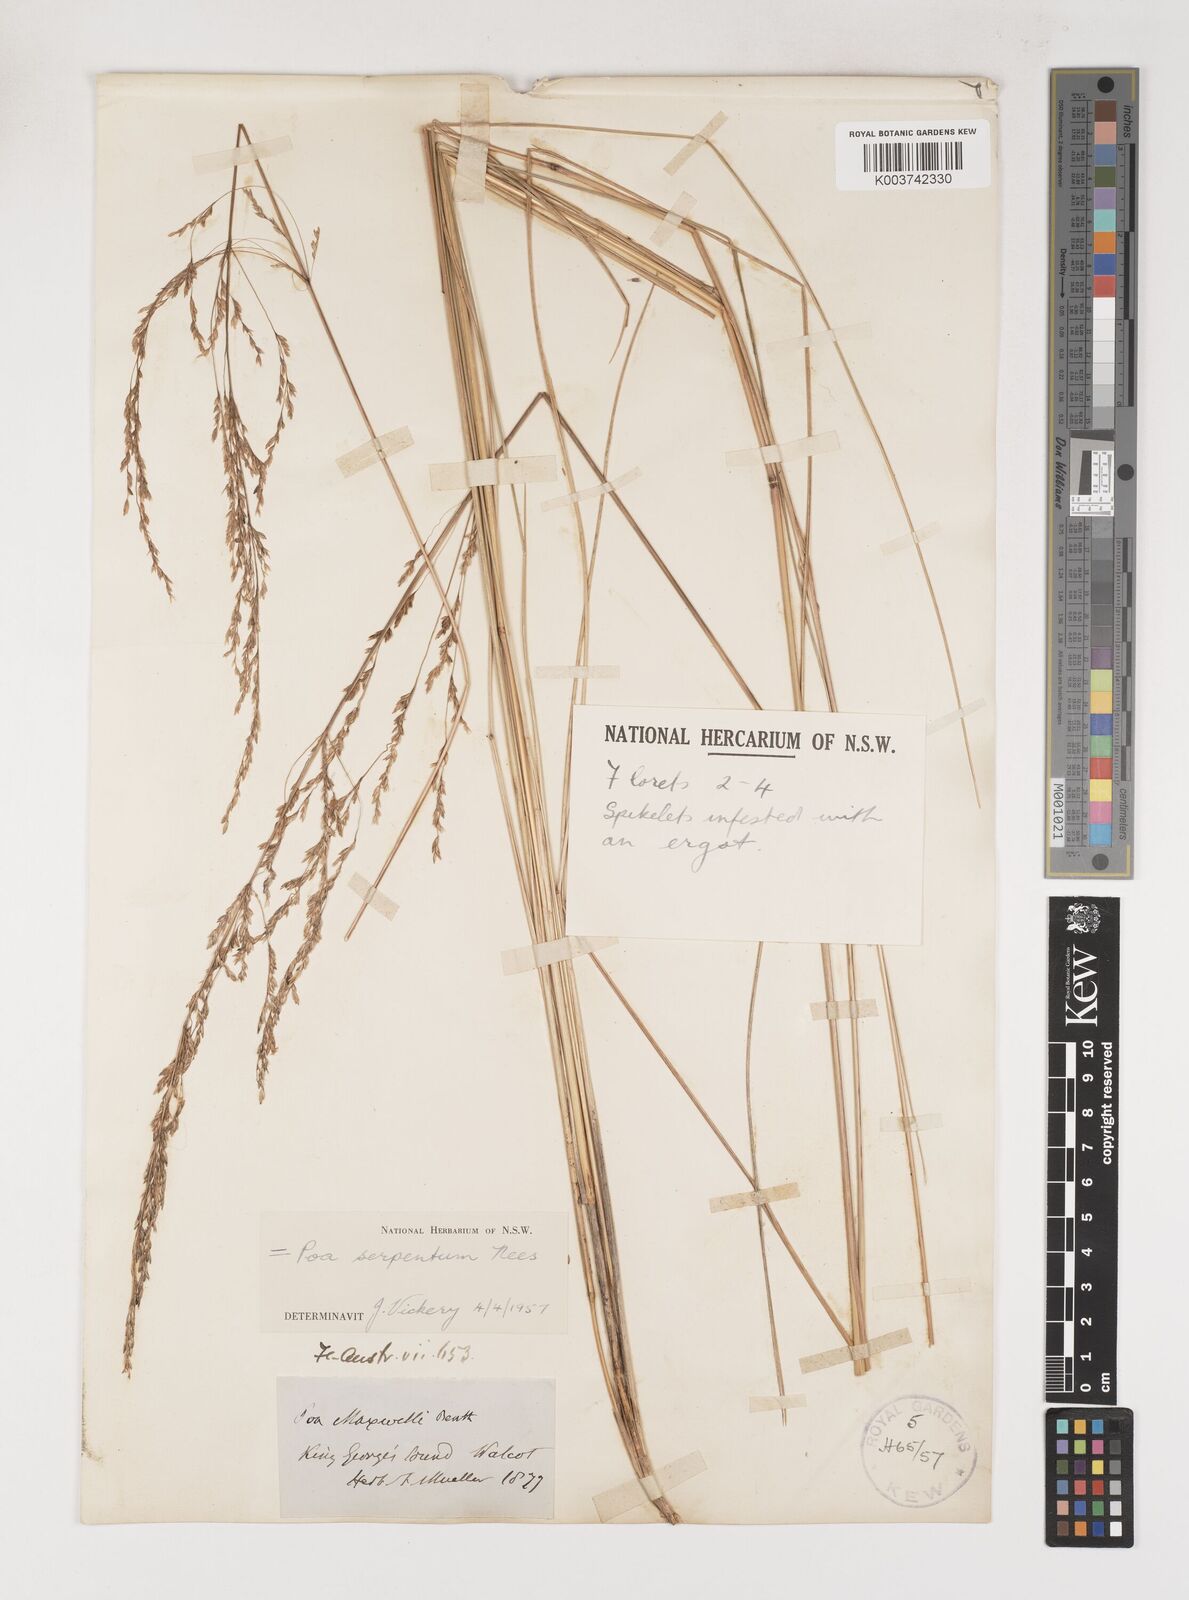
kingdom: Plantae
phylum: Tracheophyta
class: Liliopsida
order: Poales
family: Poaceae
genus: Poa
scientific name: Poa porphyroclados
